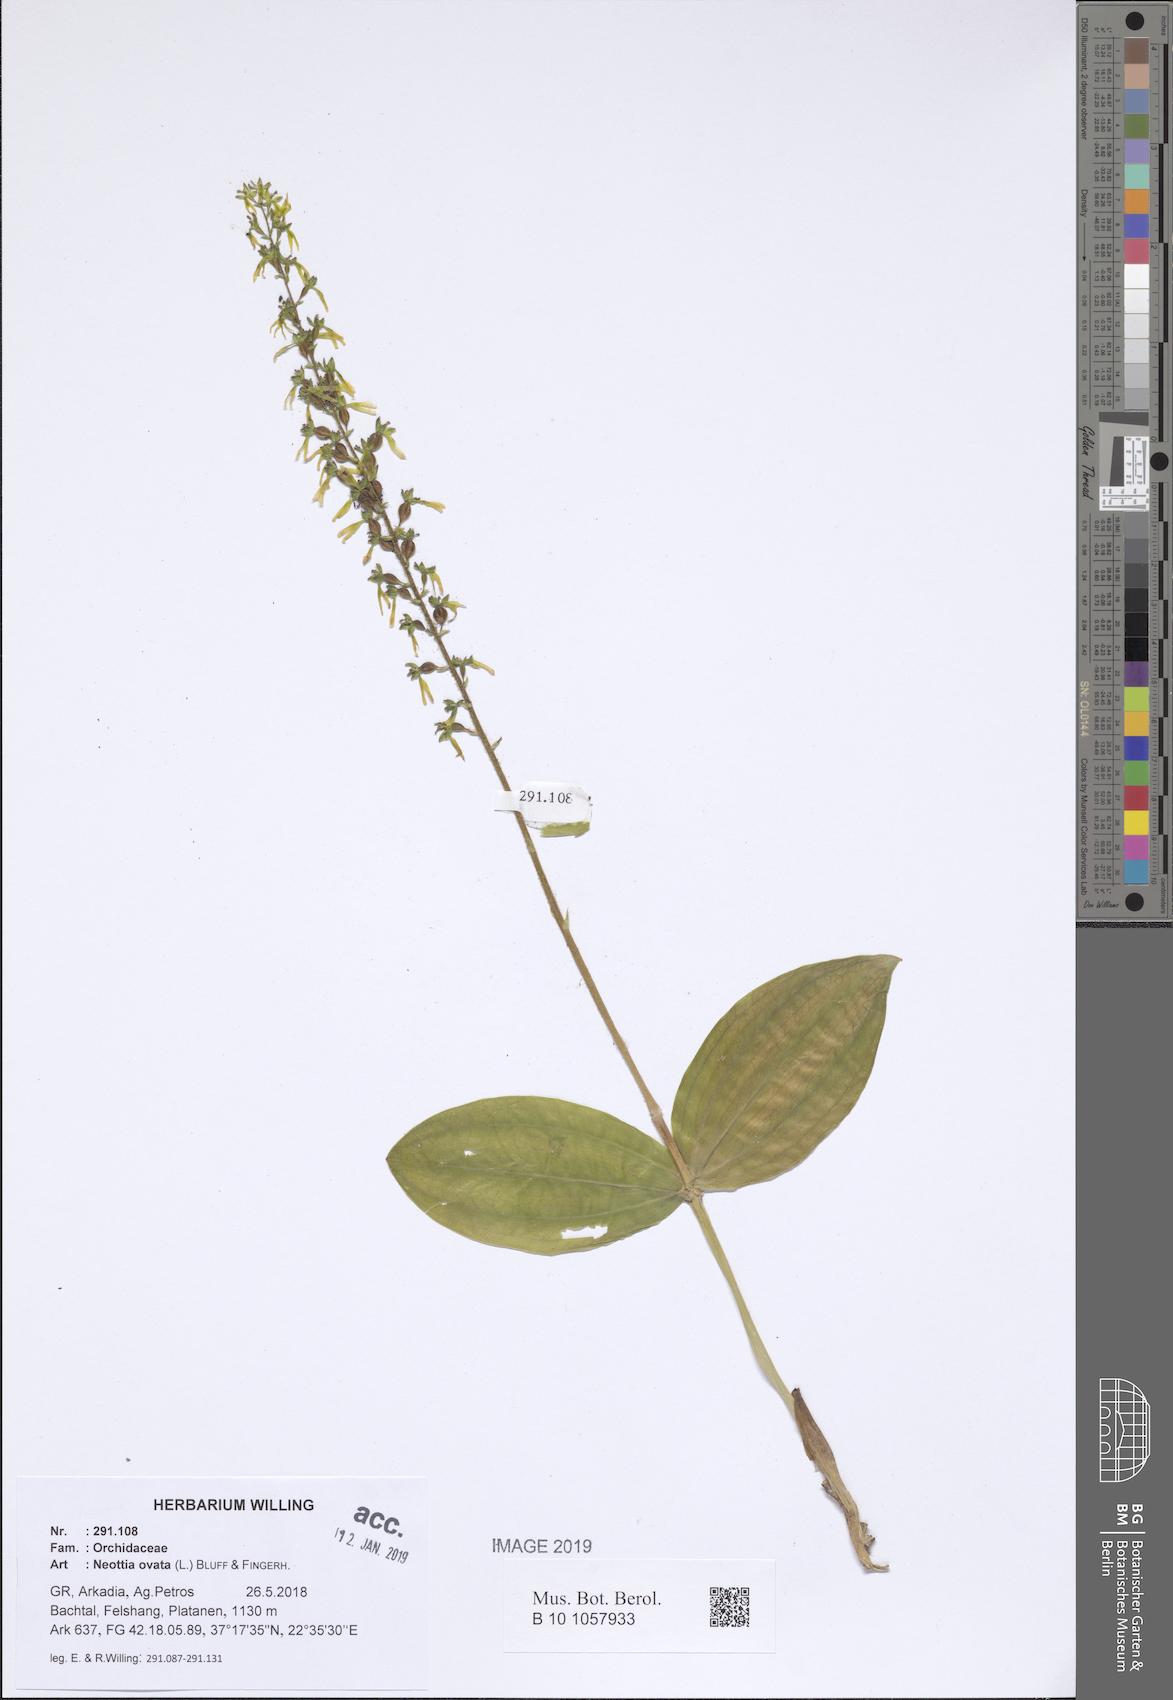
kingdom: Plantae
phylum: Tracheophyta
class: Liliopsida
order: Asparagales
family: Orchidaceae
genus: Neottia
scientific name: Neottia ovata
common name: Common twayblade
